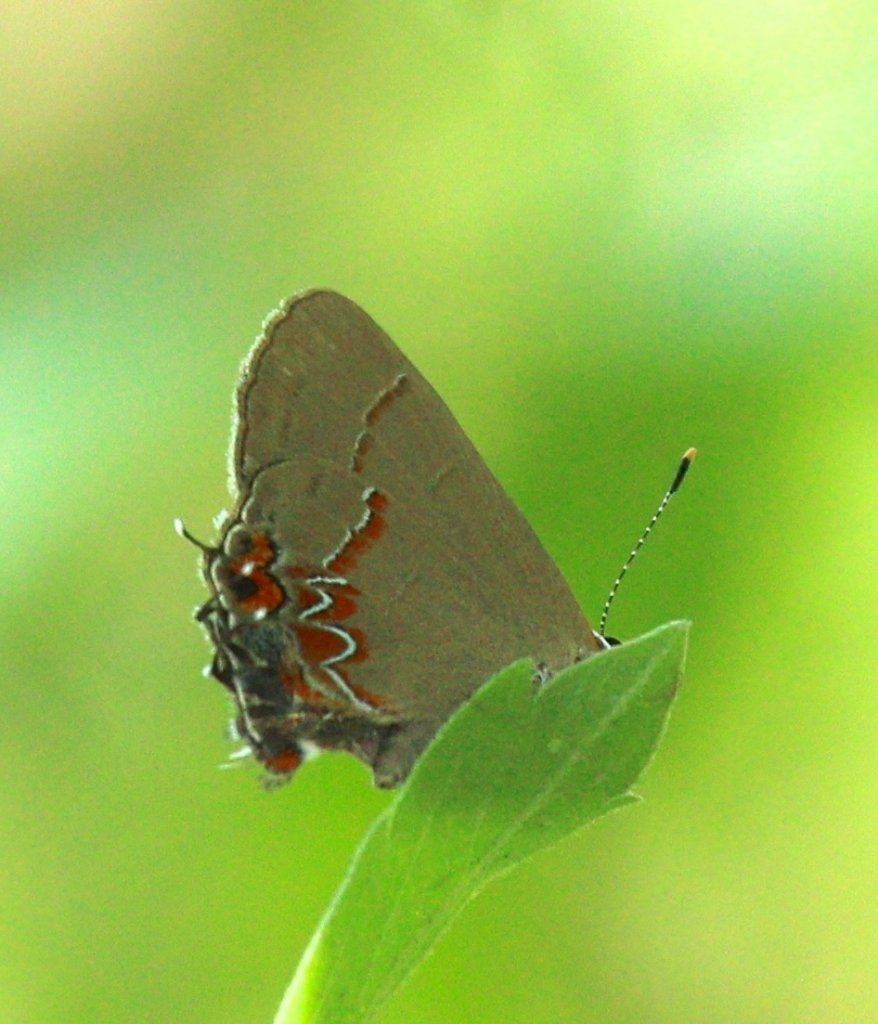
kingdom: Animalia
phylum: Arthropoda
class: Insecta
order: Lepidoptera
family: Lycaenidae
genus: Calycopis
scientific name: Calycopis isobeon
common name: Dusky-blue Groundstreak
